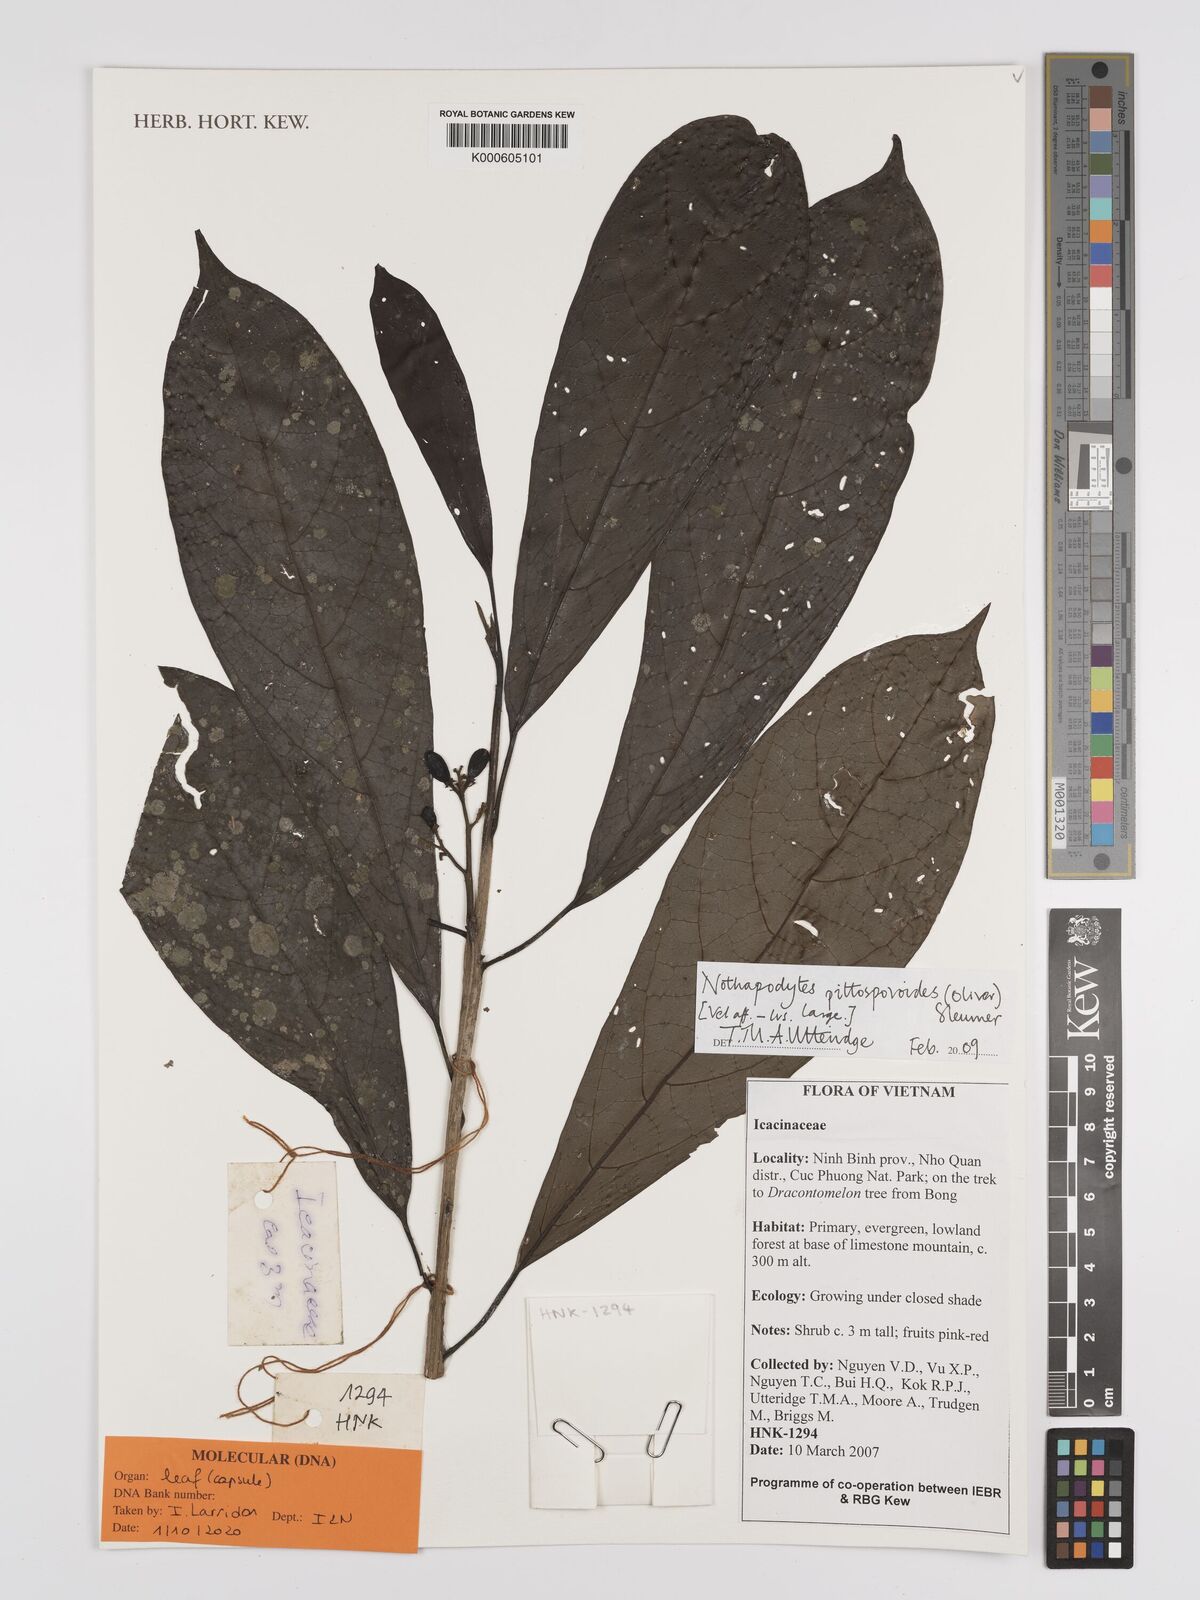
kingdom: Plantae
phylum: Tracheophyta
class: Magnoliopsida
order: Icacinales
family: Icacinaceae
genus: Nothapodytes
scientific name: Nothapodytes pittosporoides
